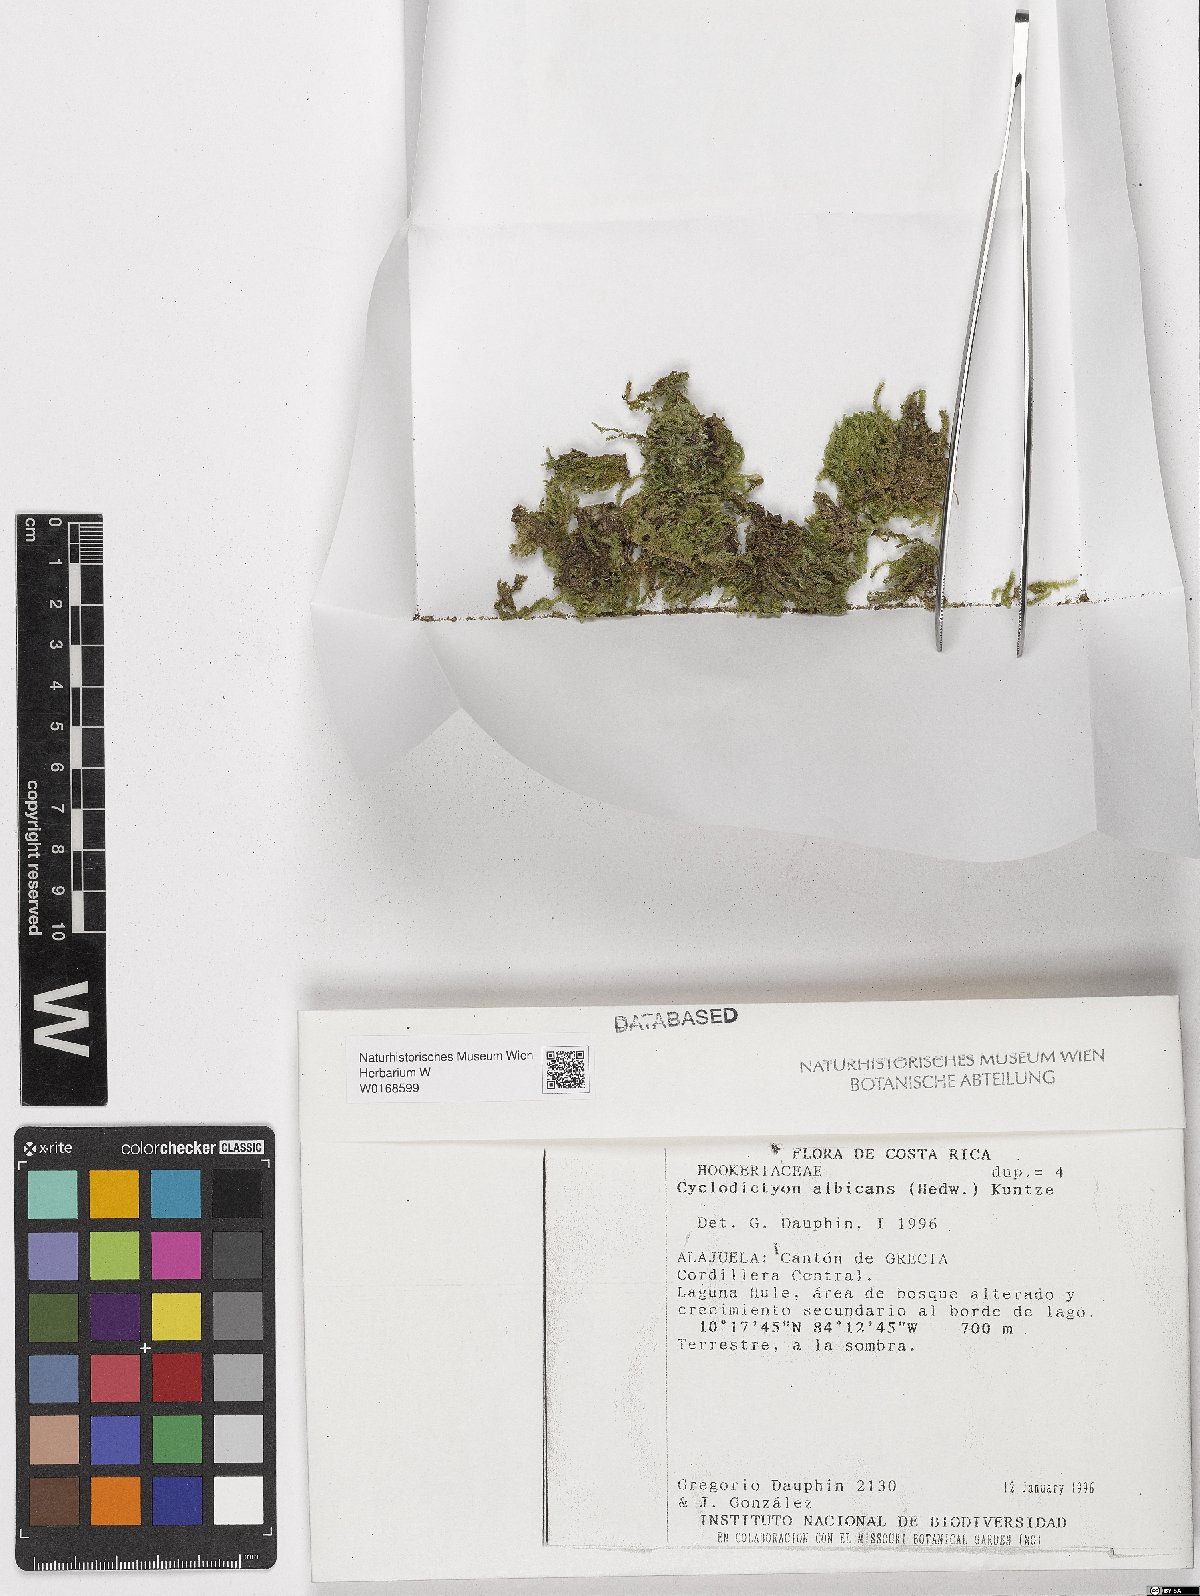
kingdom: Plantae
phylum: Bryophyta
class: Bryopsida
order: Hookeriales
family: Pilotrichaceae
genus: Cyclodictyon
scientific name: Cyclodictyon albicans
